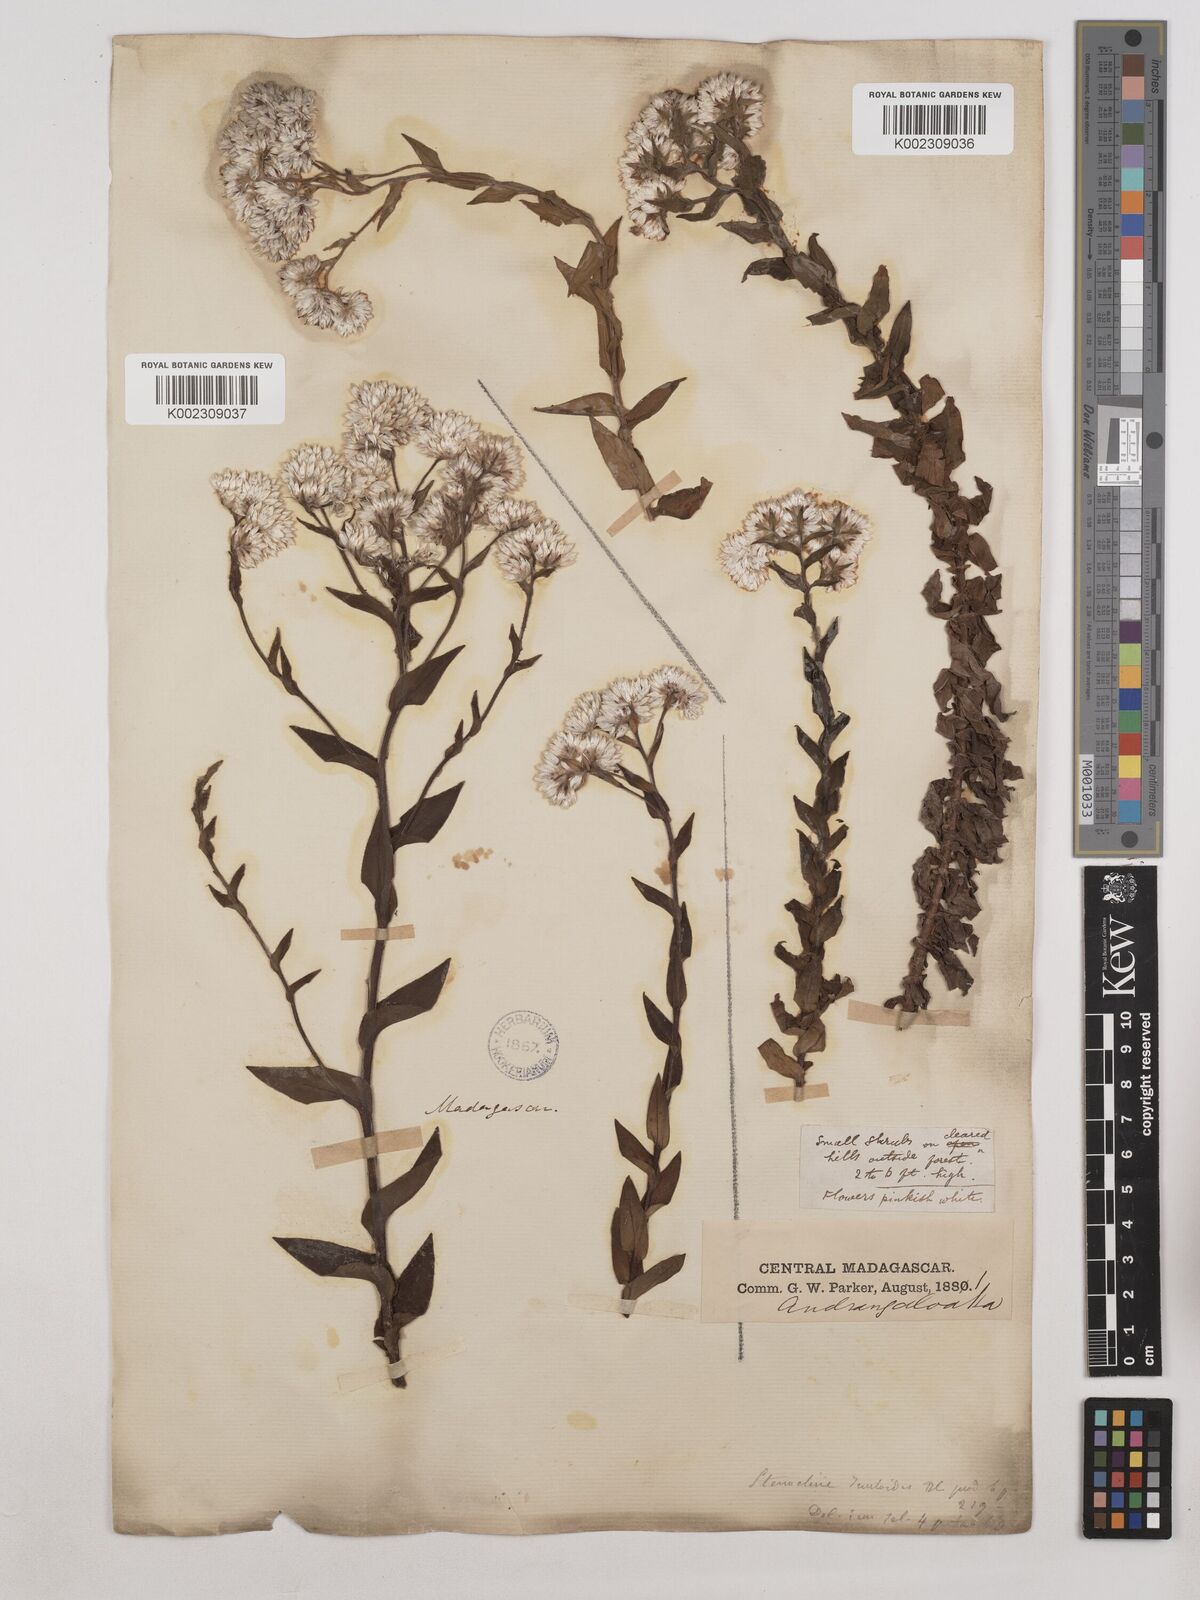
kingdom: Plantae
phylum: Tracheophyta
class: Magnoliopsida
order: Asterales
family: Asteraceae
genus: Stenocline
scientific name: Stenocline inuloides
